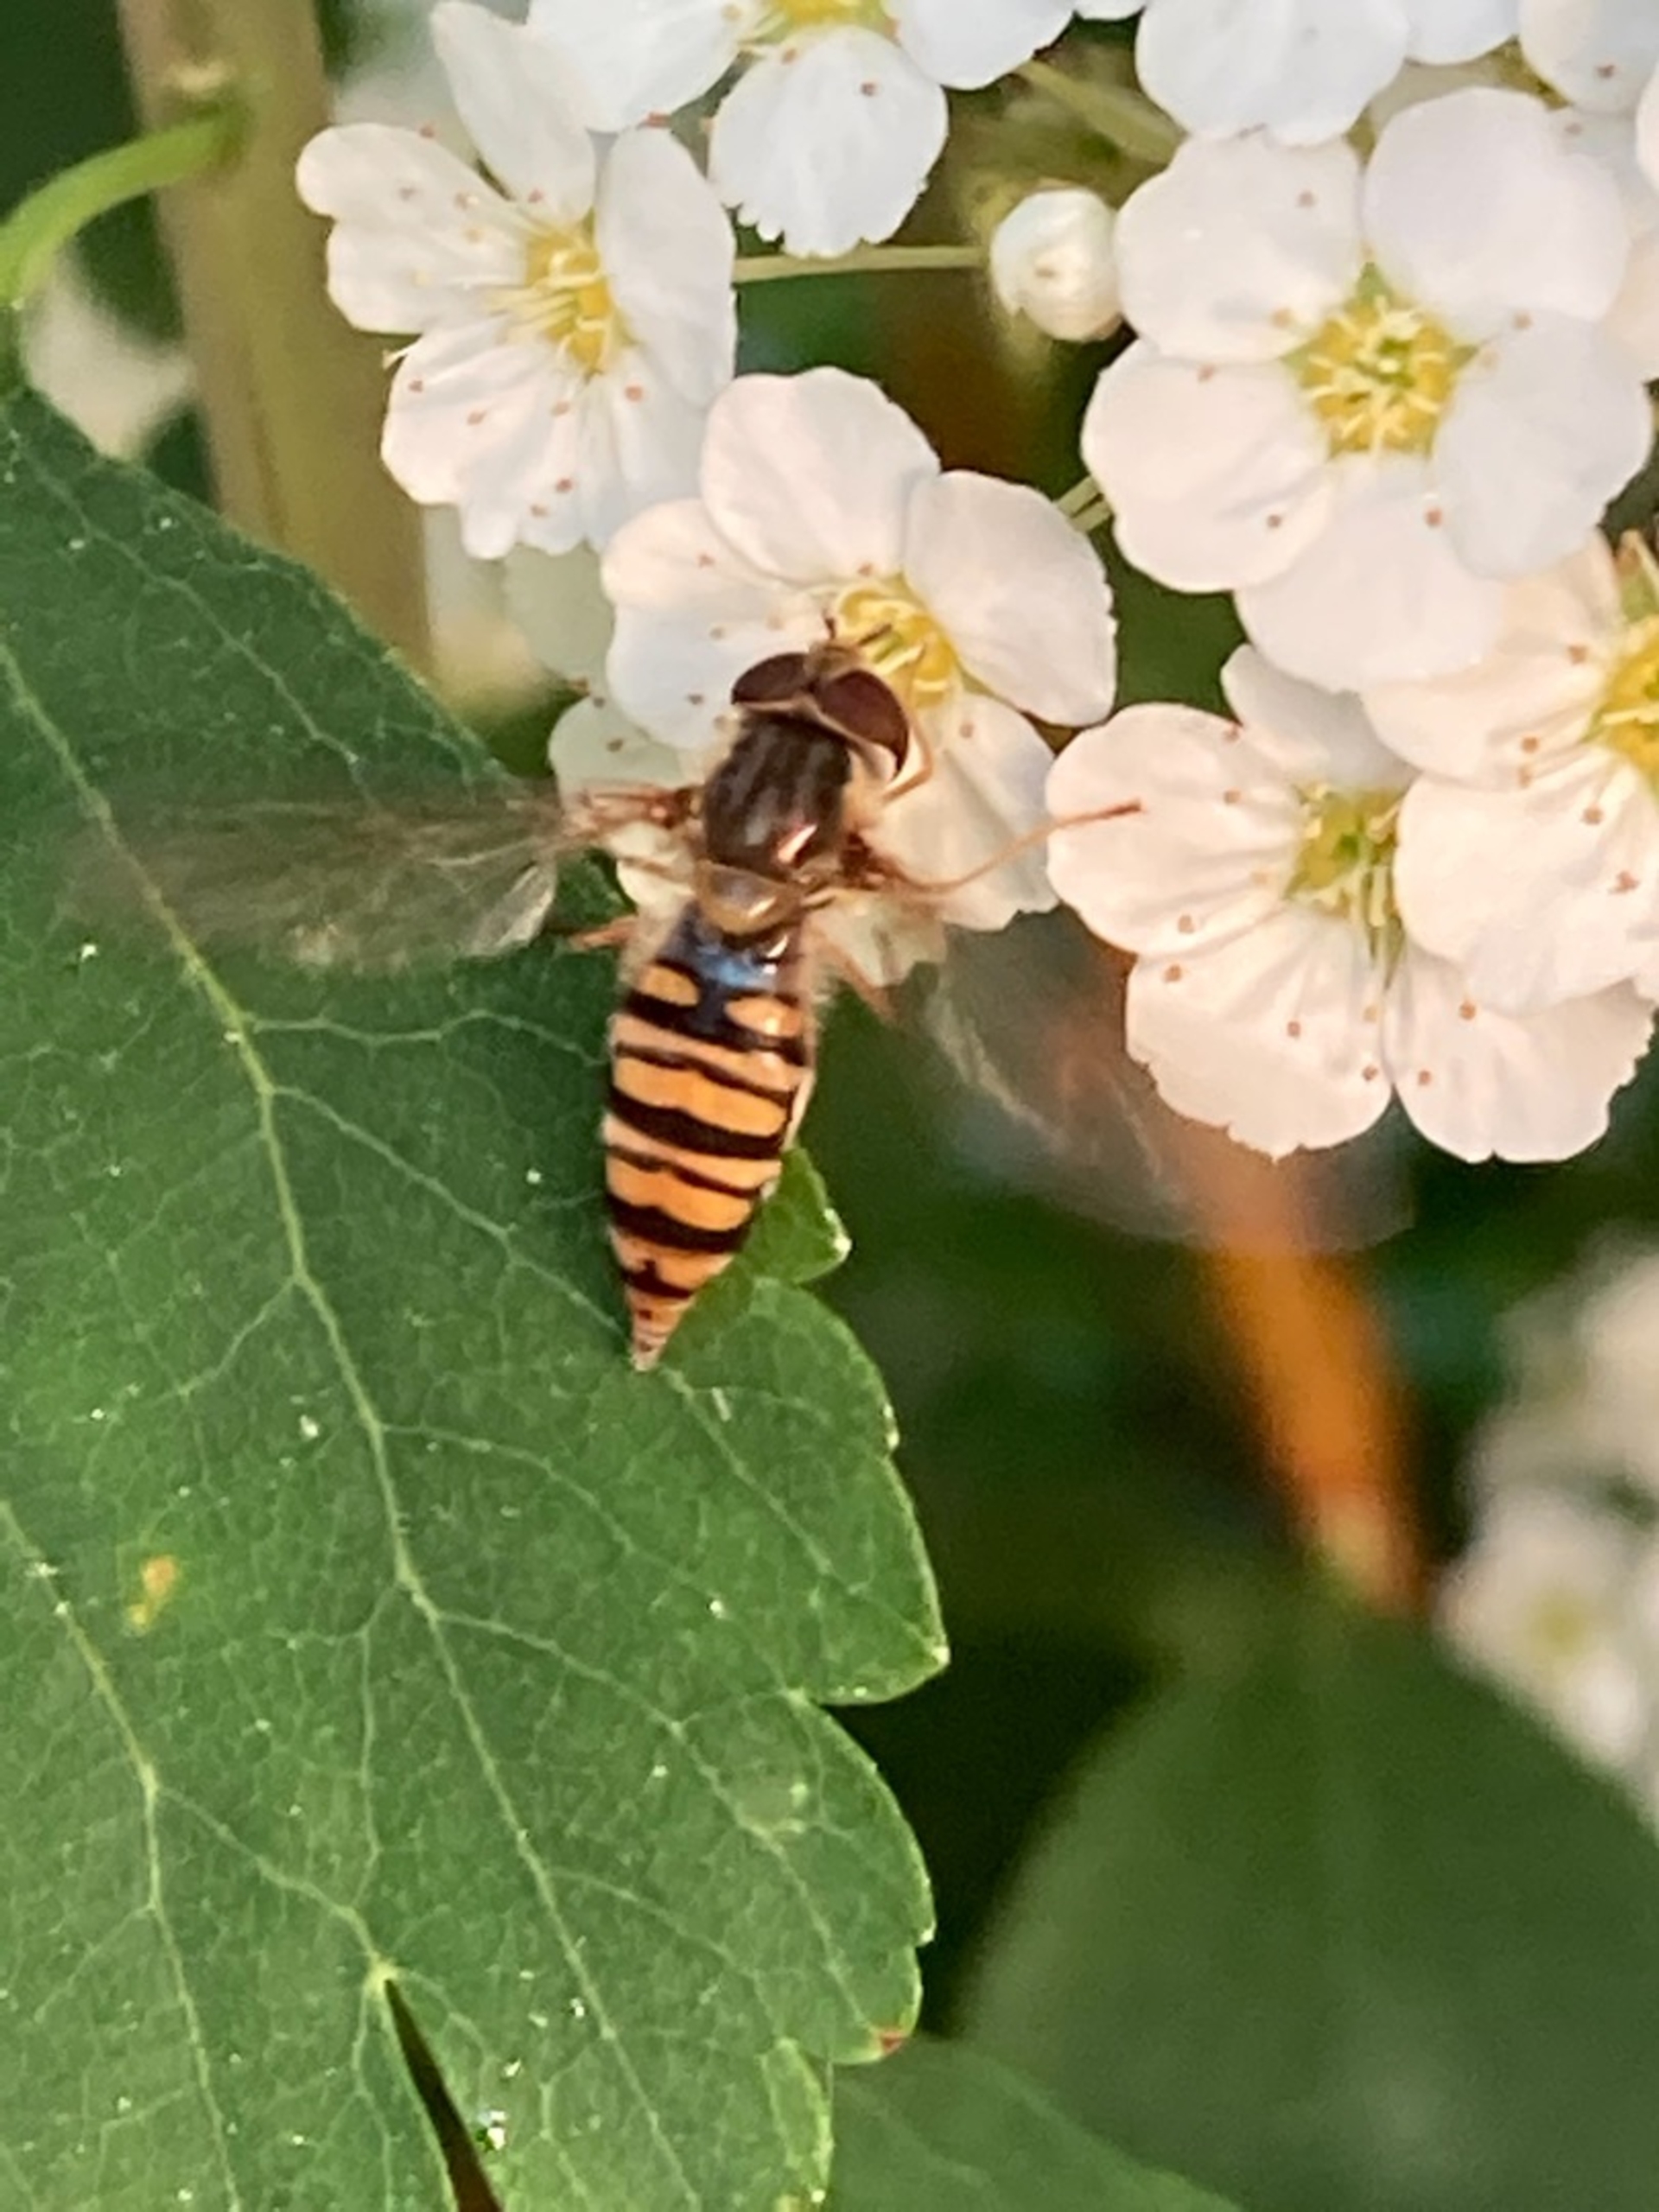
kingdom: Animalia
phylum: Arthropoda
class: Insecta
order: Diptera
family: Syrphidae
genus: Episyrphus
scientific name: Episyrphus balteatus
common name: Dobbeltbåndet svirreflue
